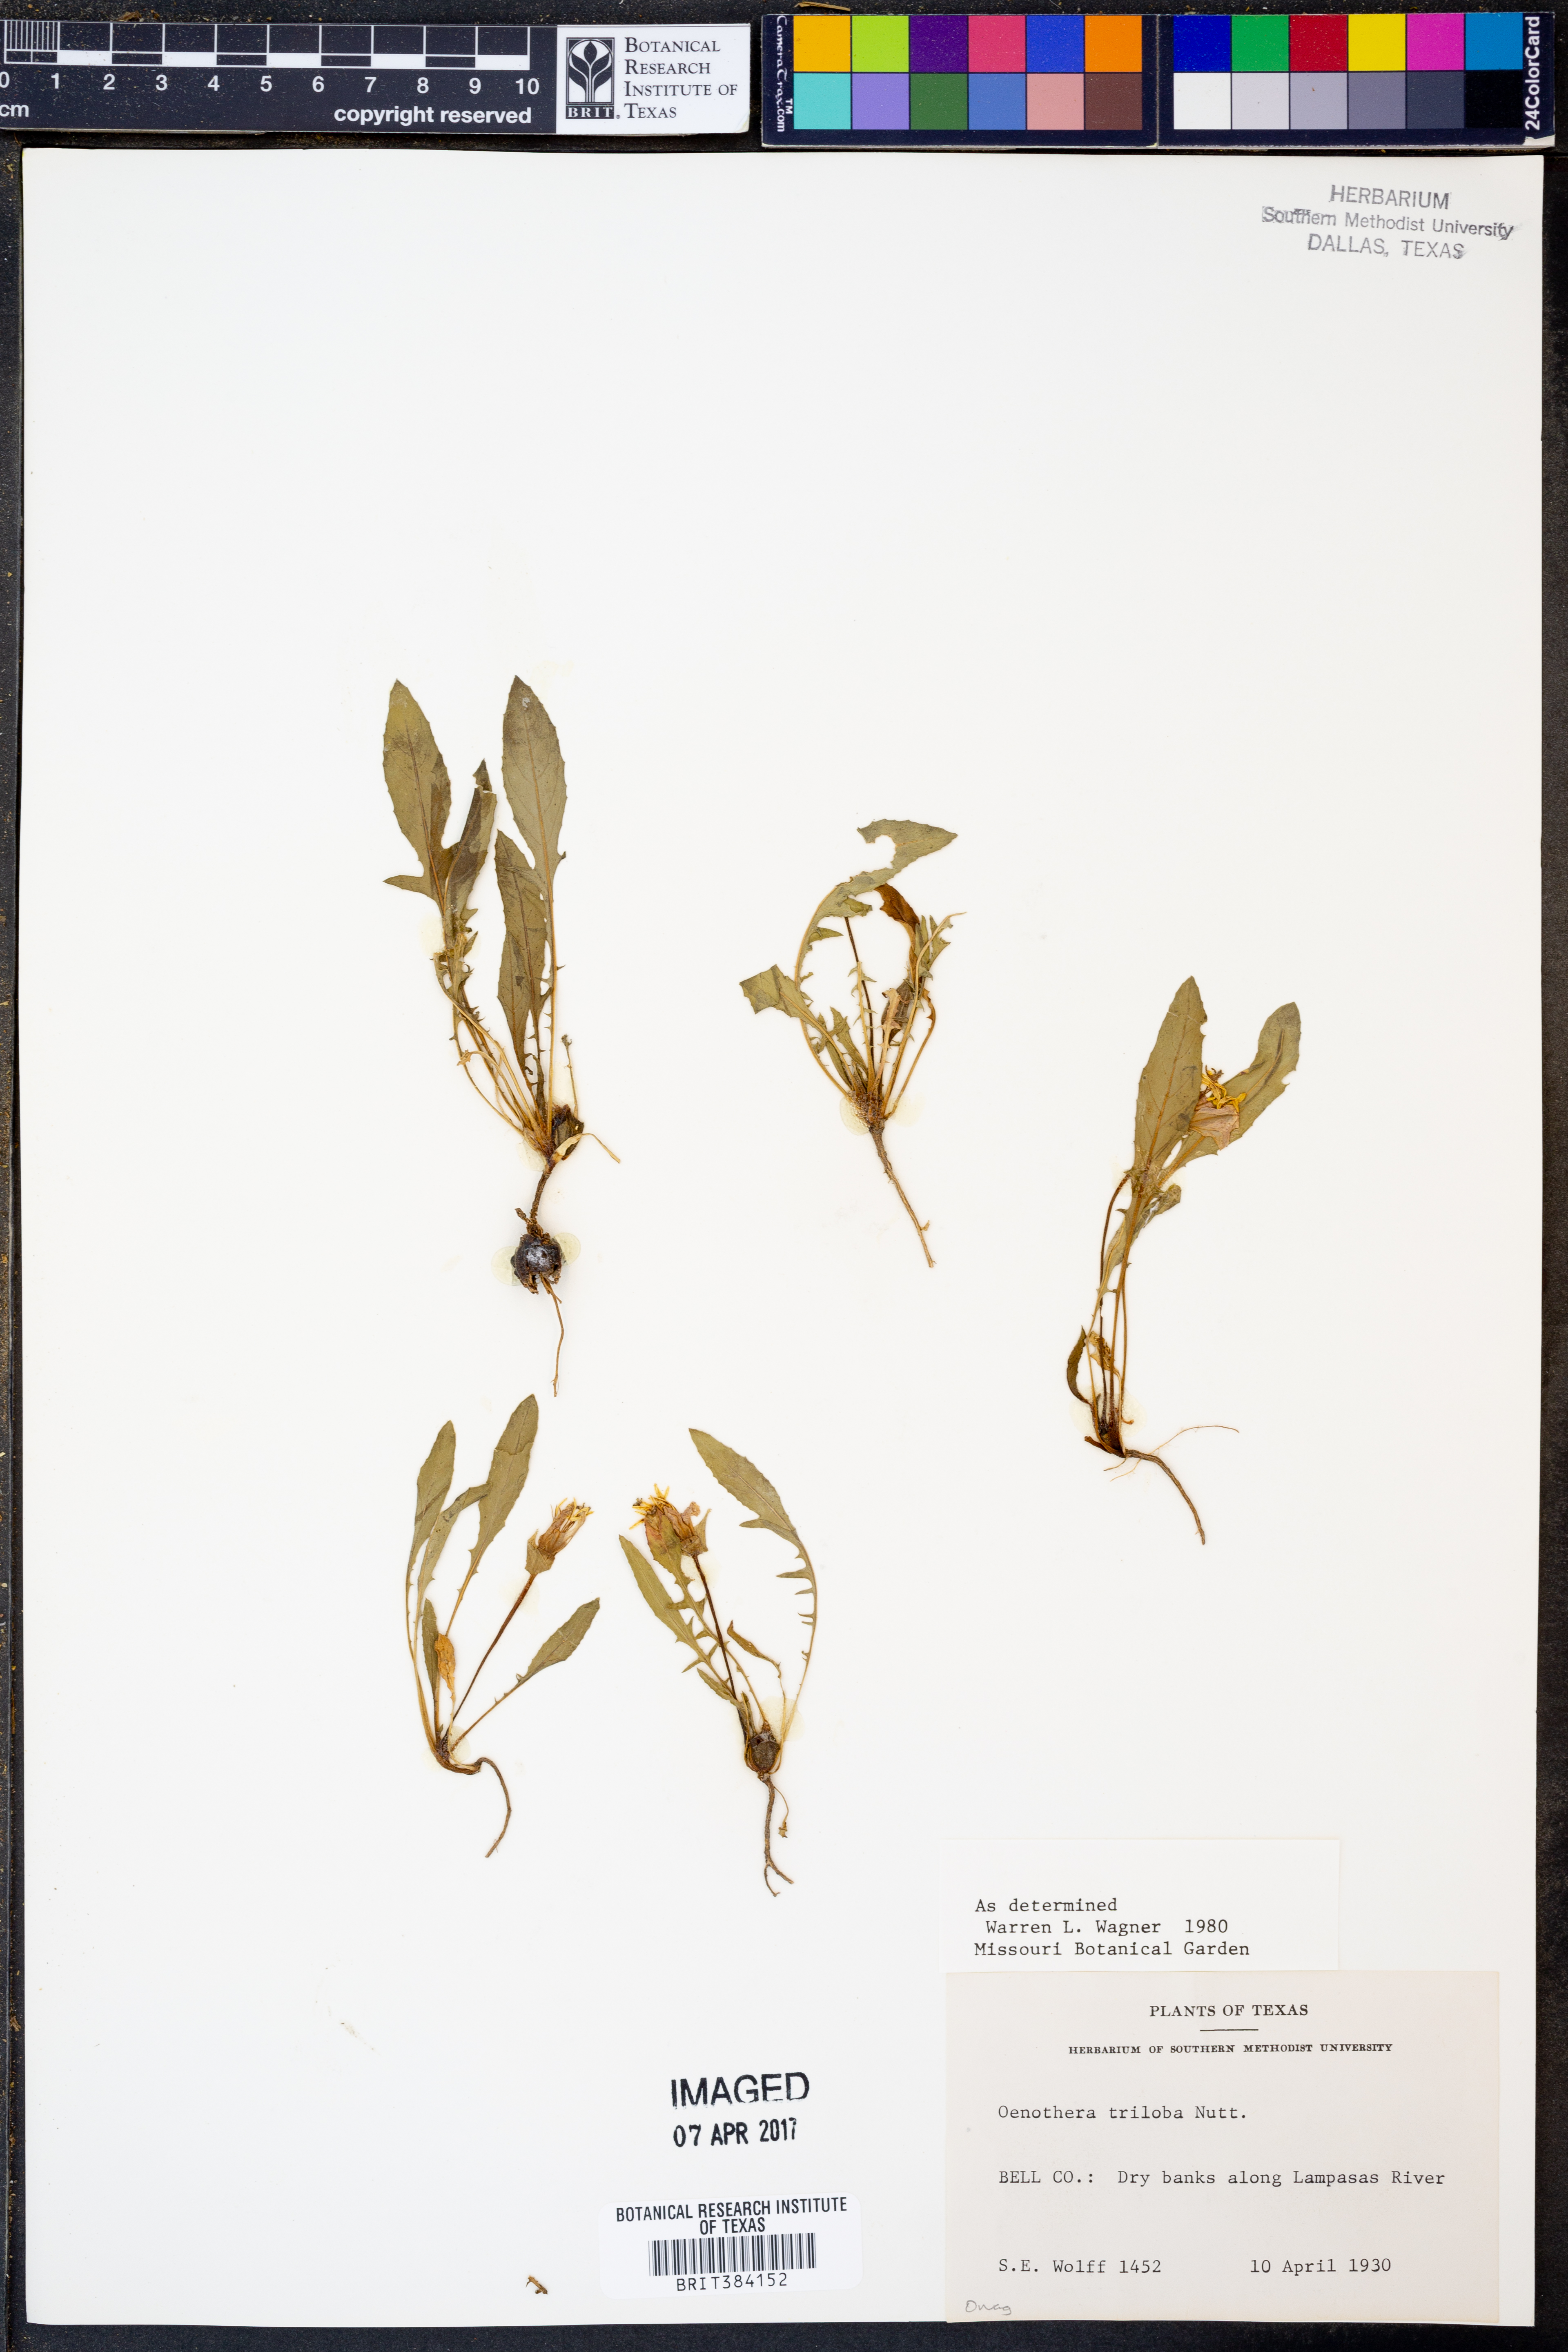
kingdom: Plantae
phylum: Tracheophyta
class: Magnoliopsida
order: Myrtales
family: Onagraceae
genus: Oenothera
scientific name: Oenothera triloba
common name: Sessile evening-primrose
